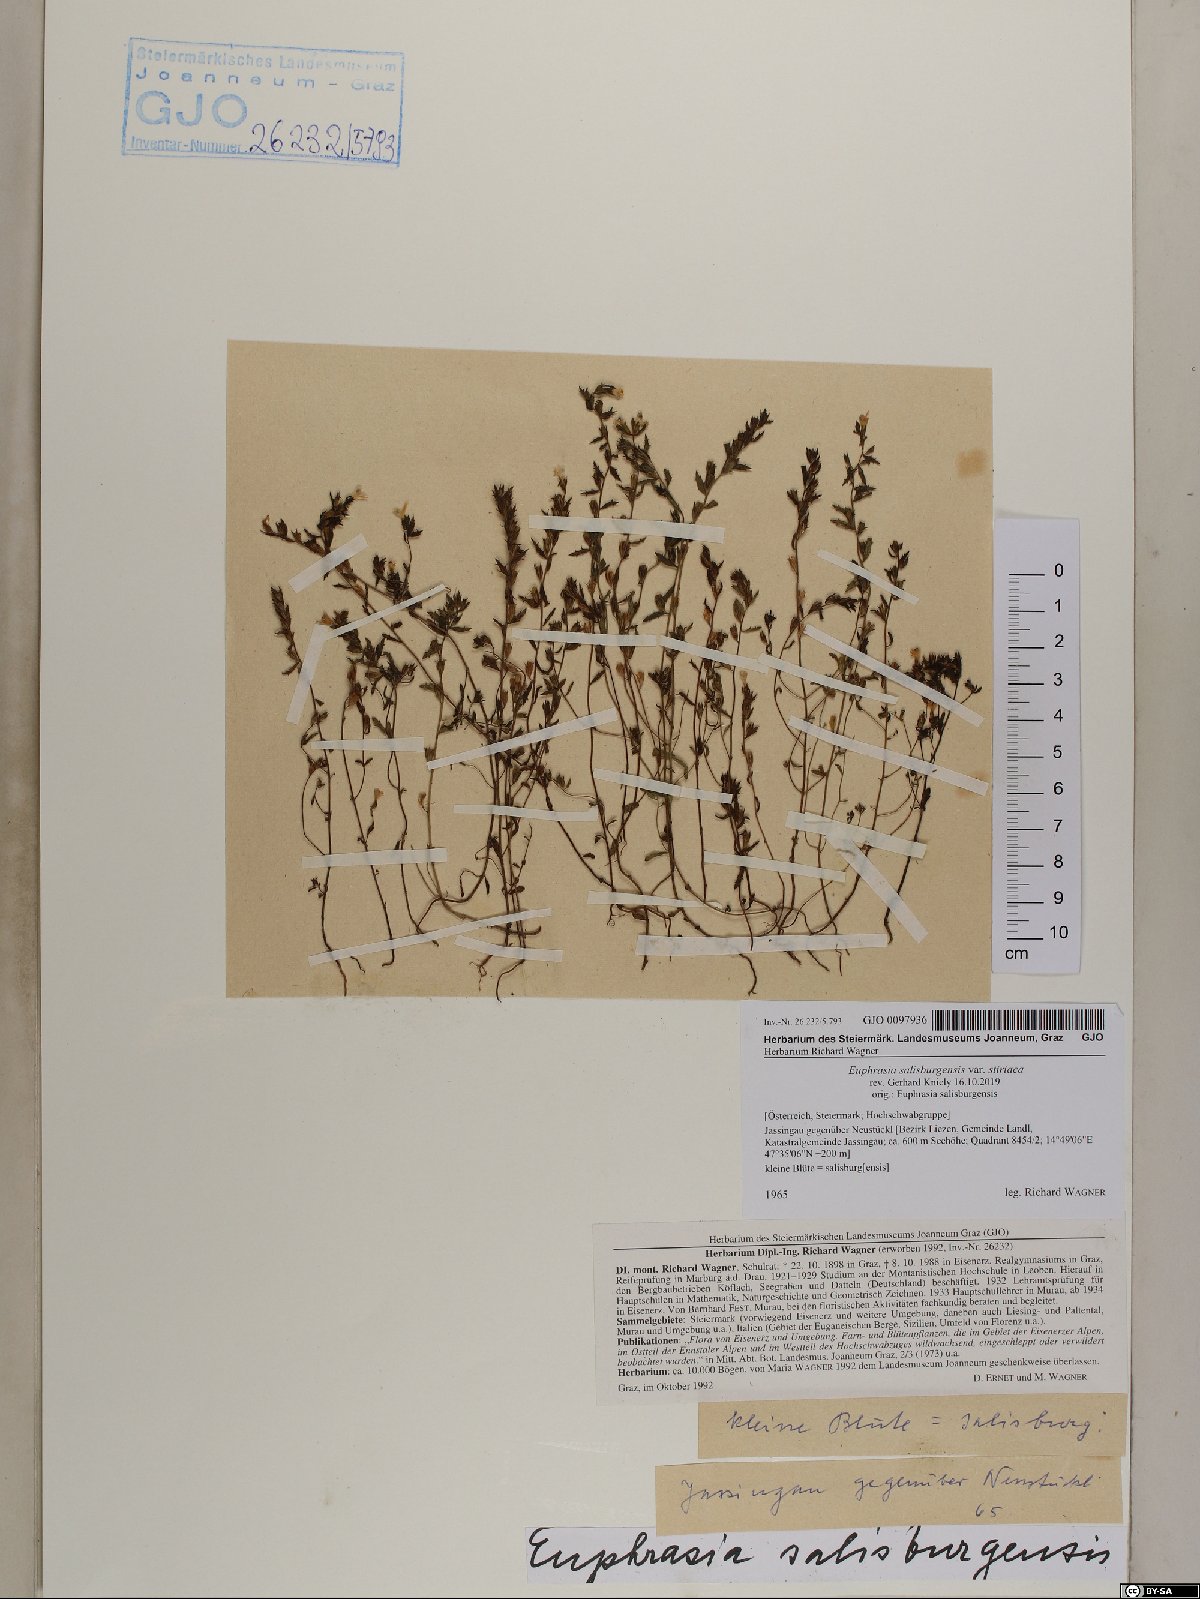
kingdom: Plantae
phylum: Tracheophyta
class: Magnoliopsida
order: Lamiales
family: Orobanchaceae
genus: Euphrasia
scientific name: Euphrasia salisburgensis
